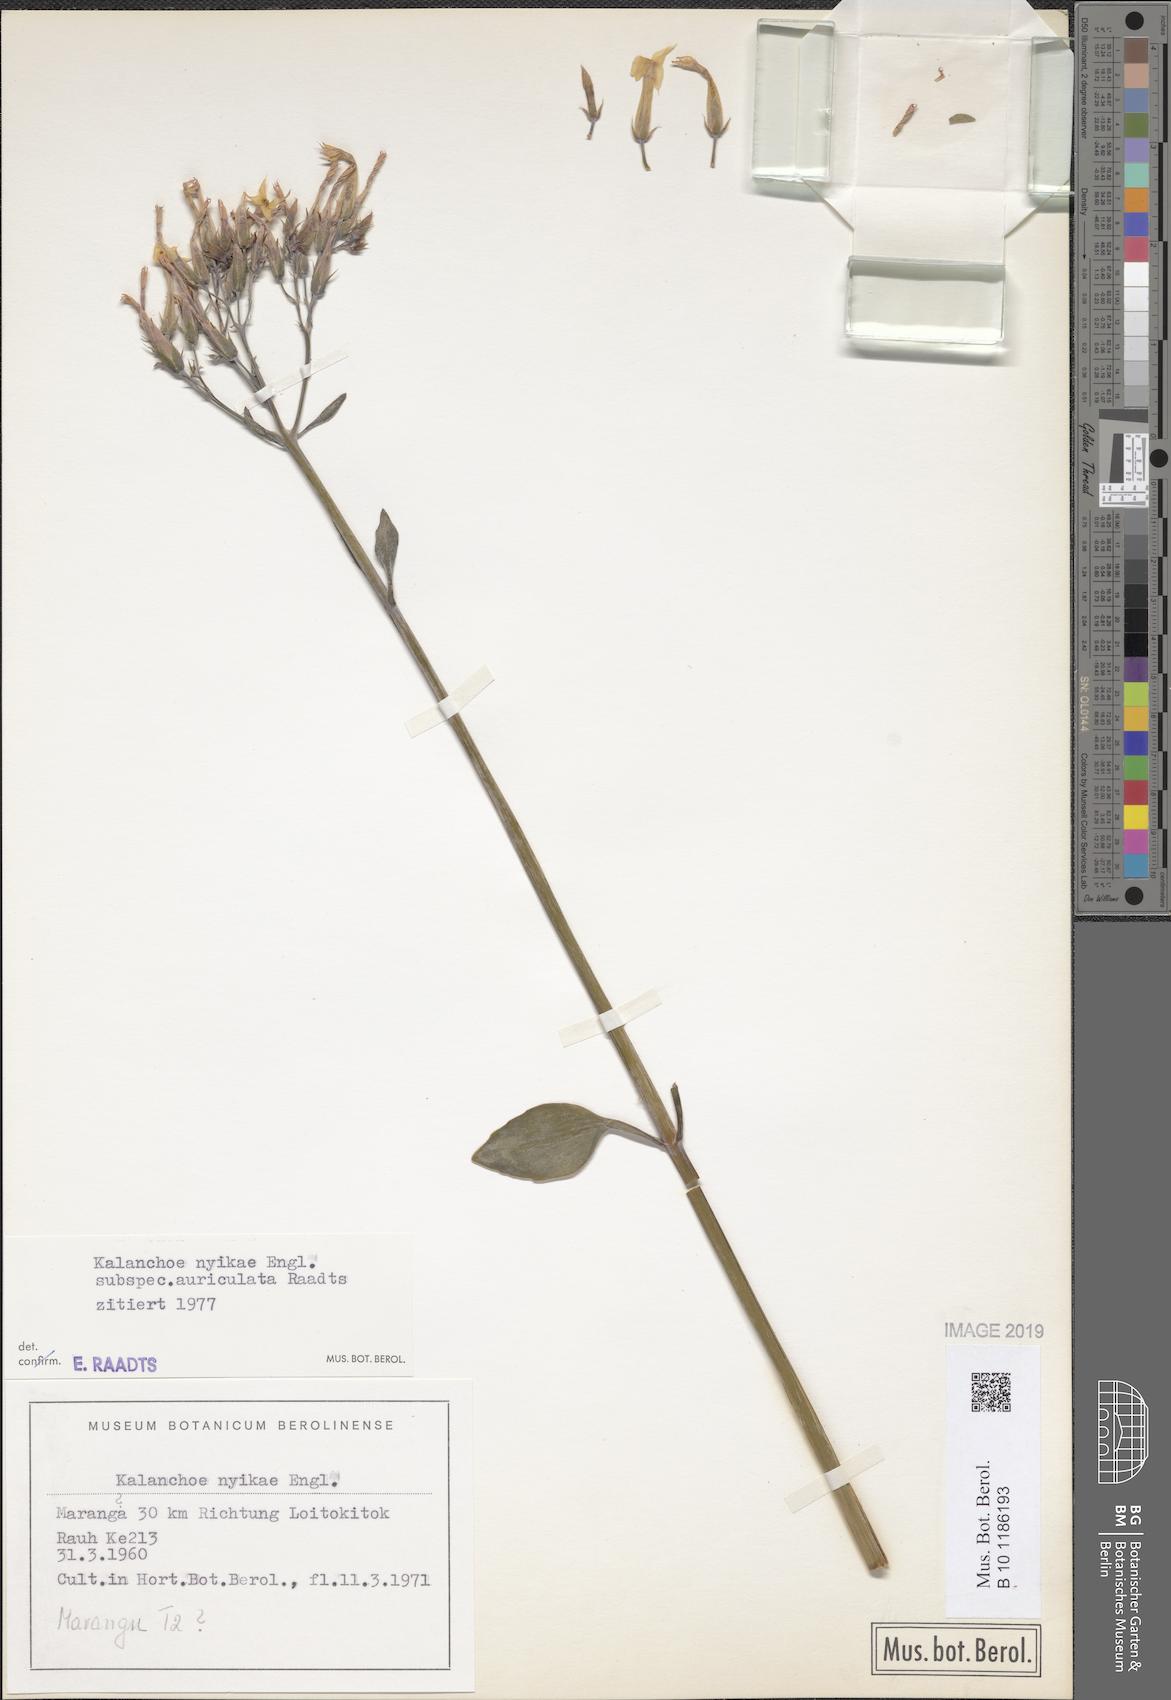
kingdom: Plantae
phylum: Tracheophyta
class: Magnoliopsida
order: Saxifragales
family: Crassulaceae
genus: Kalanchoe
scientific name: Kalanchoe auriculata
